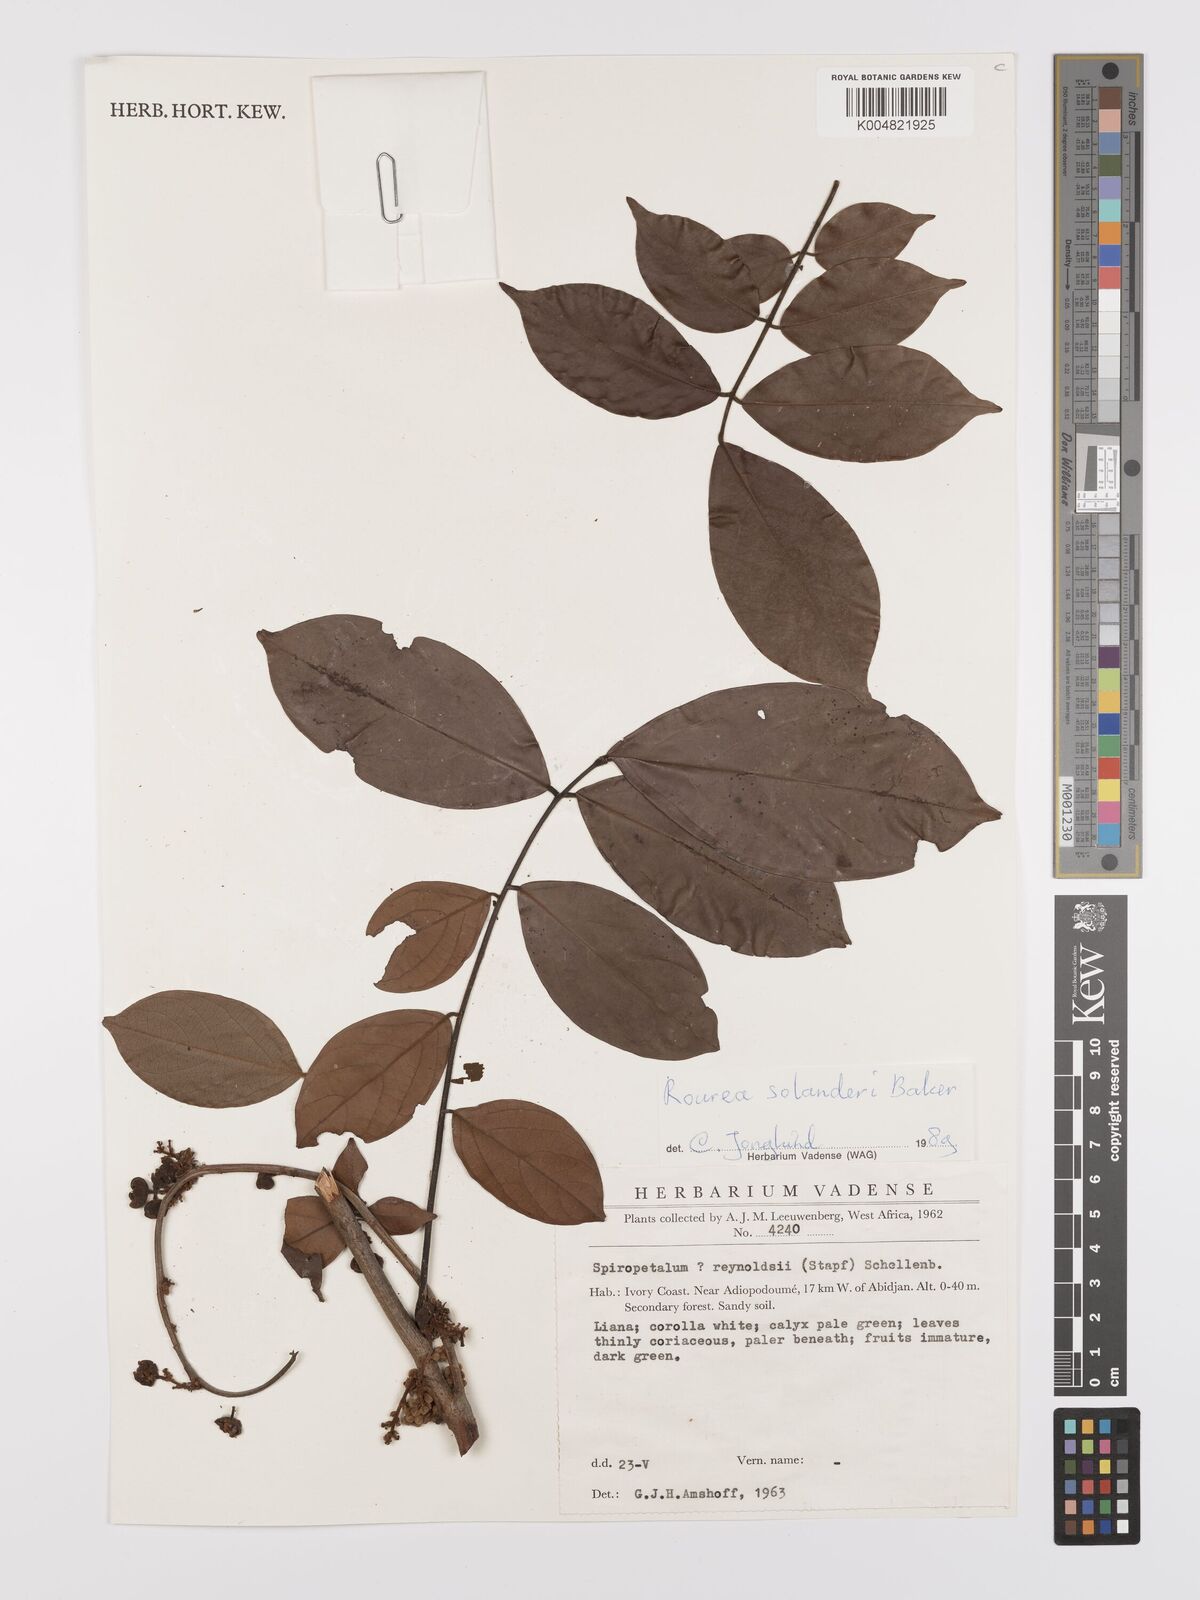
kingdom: Plantae
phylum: Tracheophyta
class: Magnoliopsida
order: Oxalidales
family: Connaraceae
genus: Rourea
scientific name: Rourea solanderi
